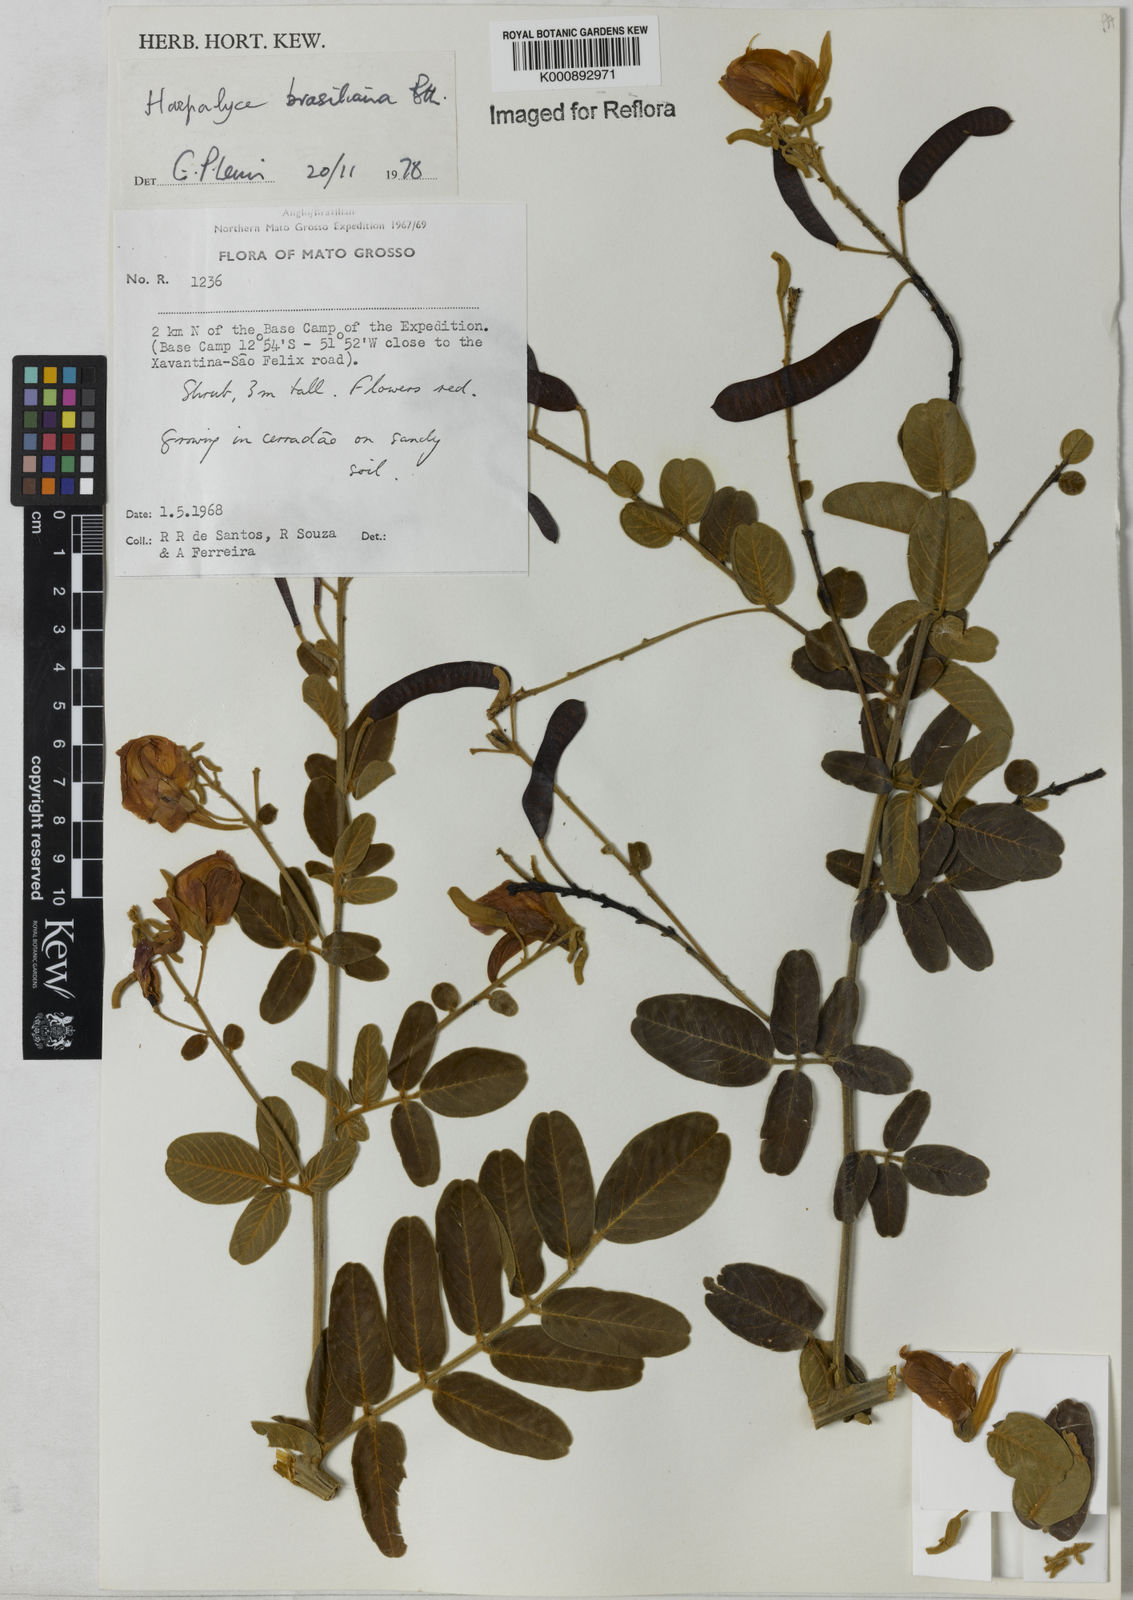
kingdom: Plantae
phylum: Tracheophyta
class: Magnoliopsida
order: Fabales
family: Fabaceae
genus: Harpalyce
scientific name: Harpalyce brasiliana
